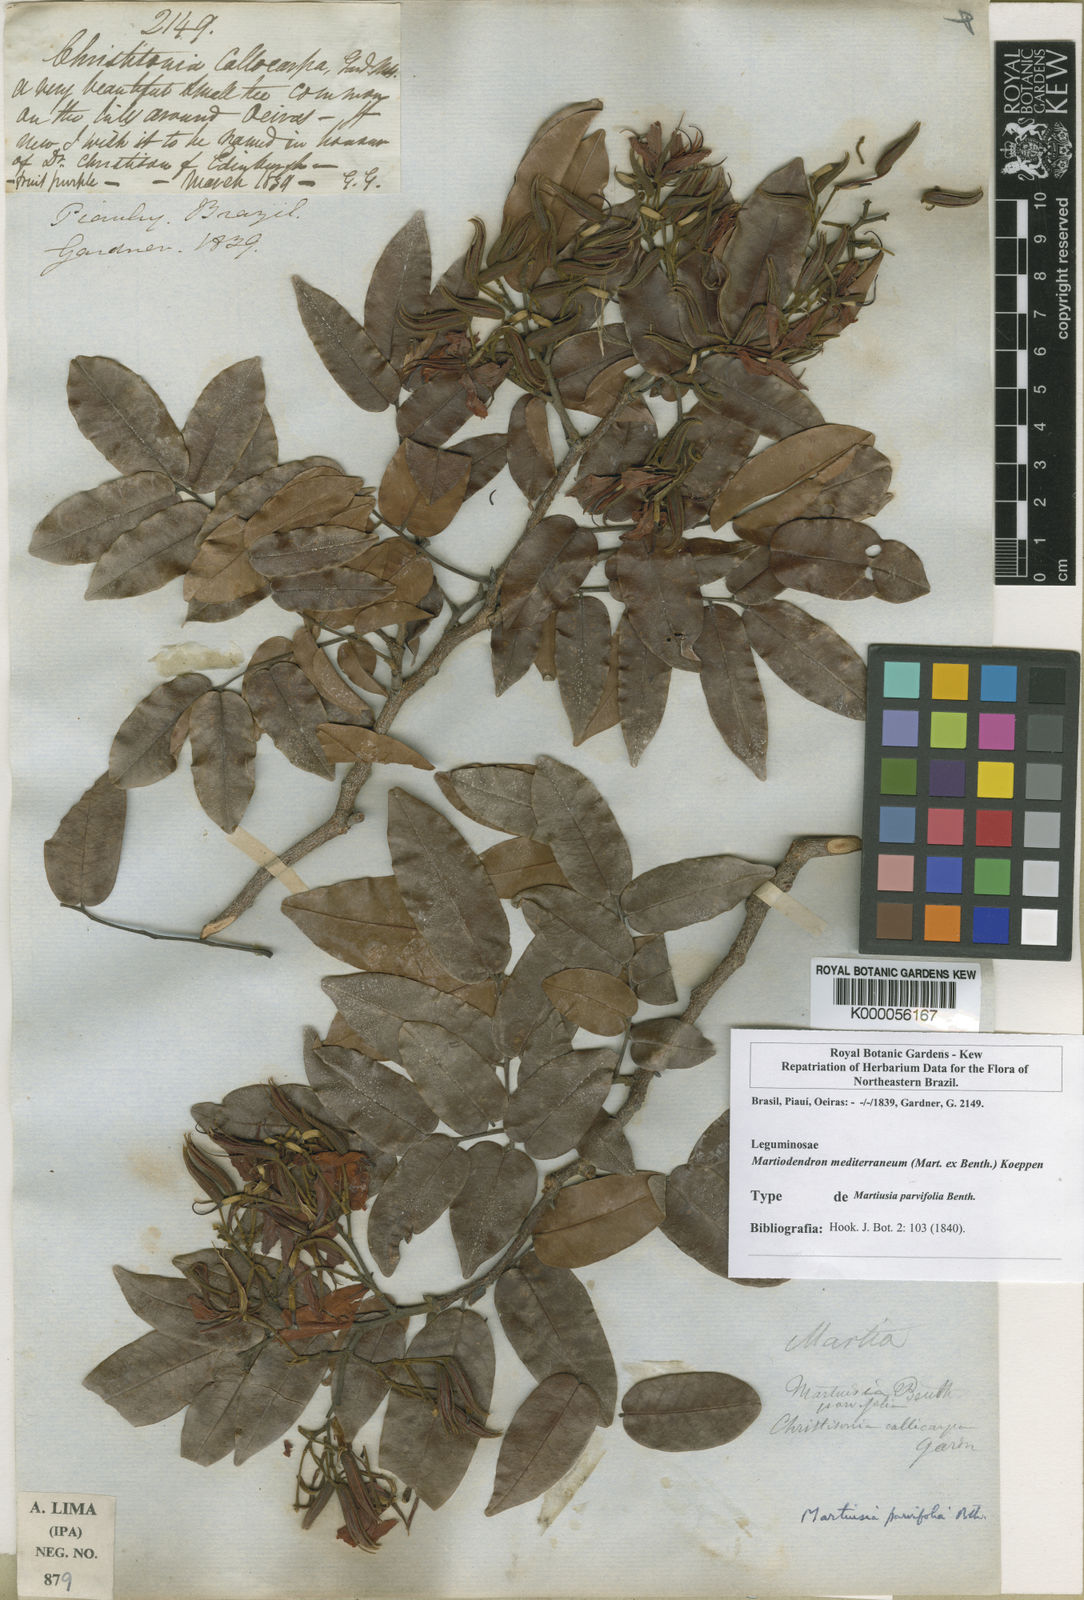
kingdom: Plantae
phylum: Tracheophyta
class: Magnoliopsida
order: Fabales
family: Fabaceae
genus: Martiodendron
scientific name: Martiodendron
